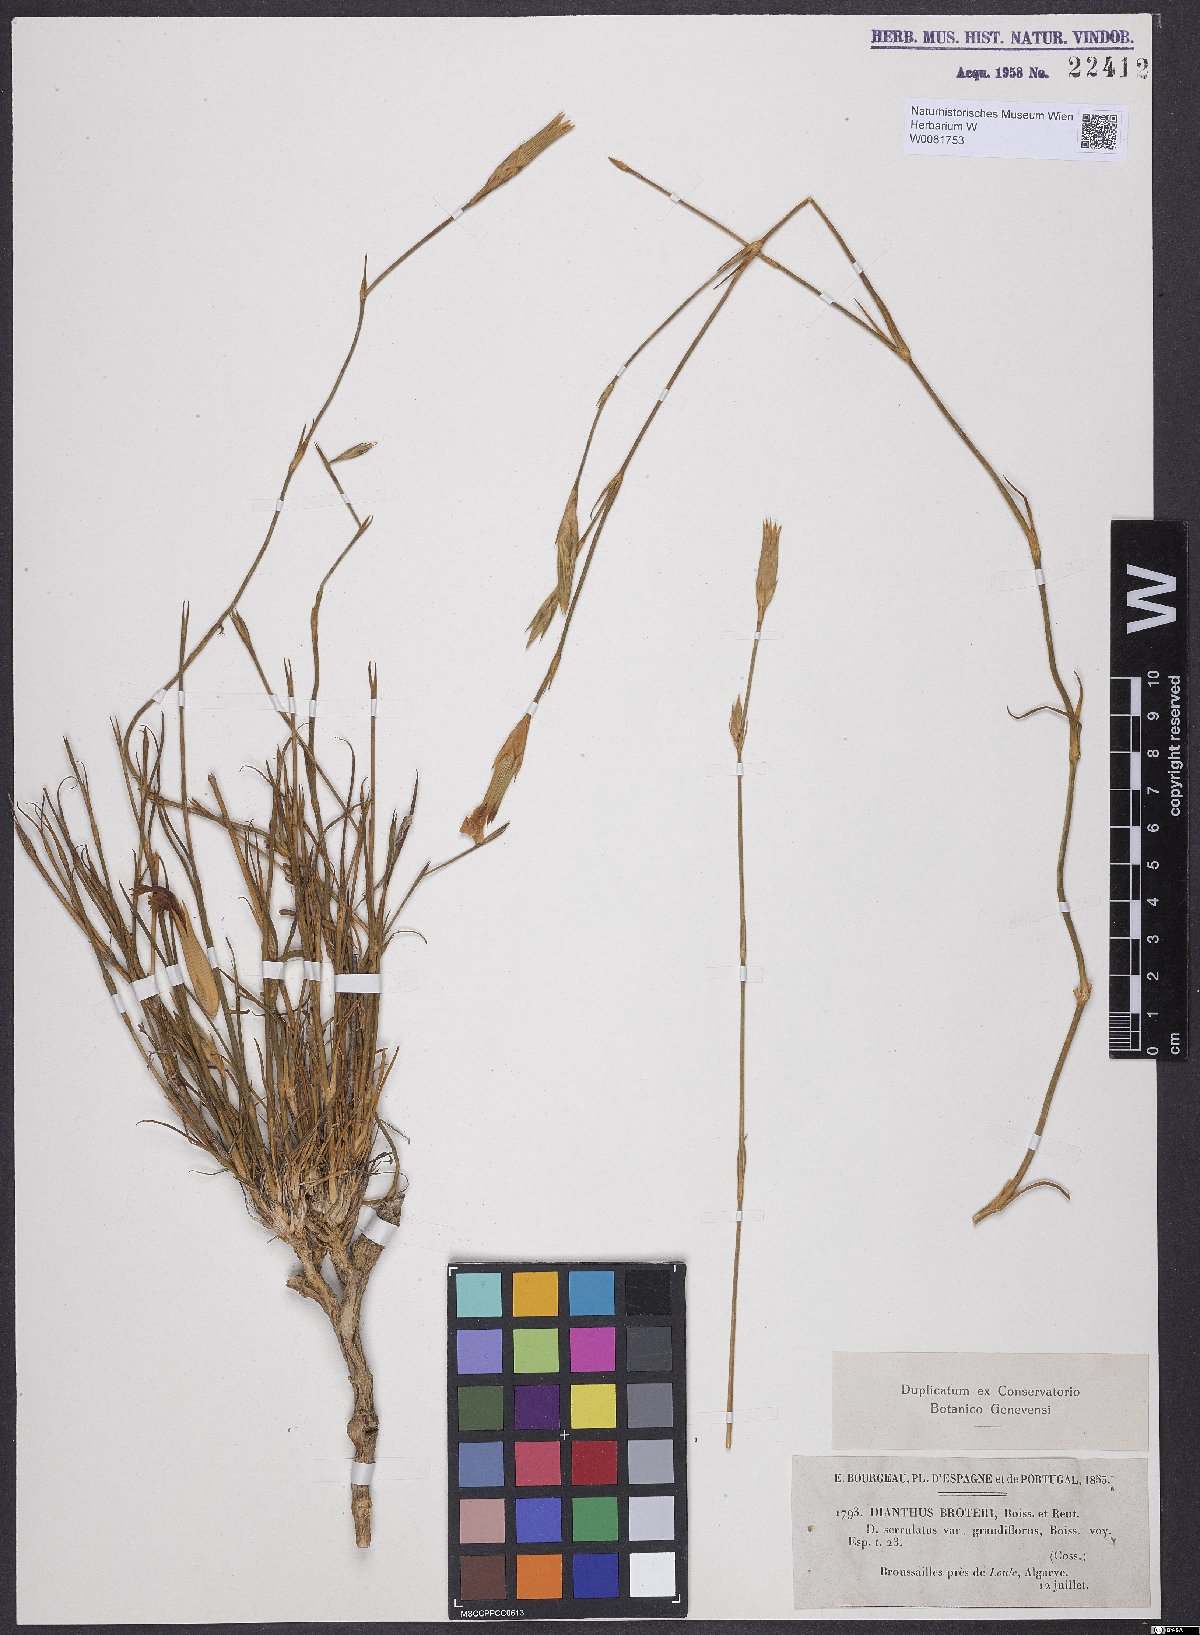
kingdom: Plantae
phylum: Tracheophyta
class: Magnoliopsida
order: Caryophyllales
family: Caryophyllaceae
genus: Dianthus
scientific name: Dianthus broteri
